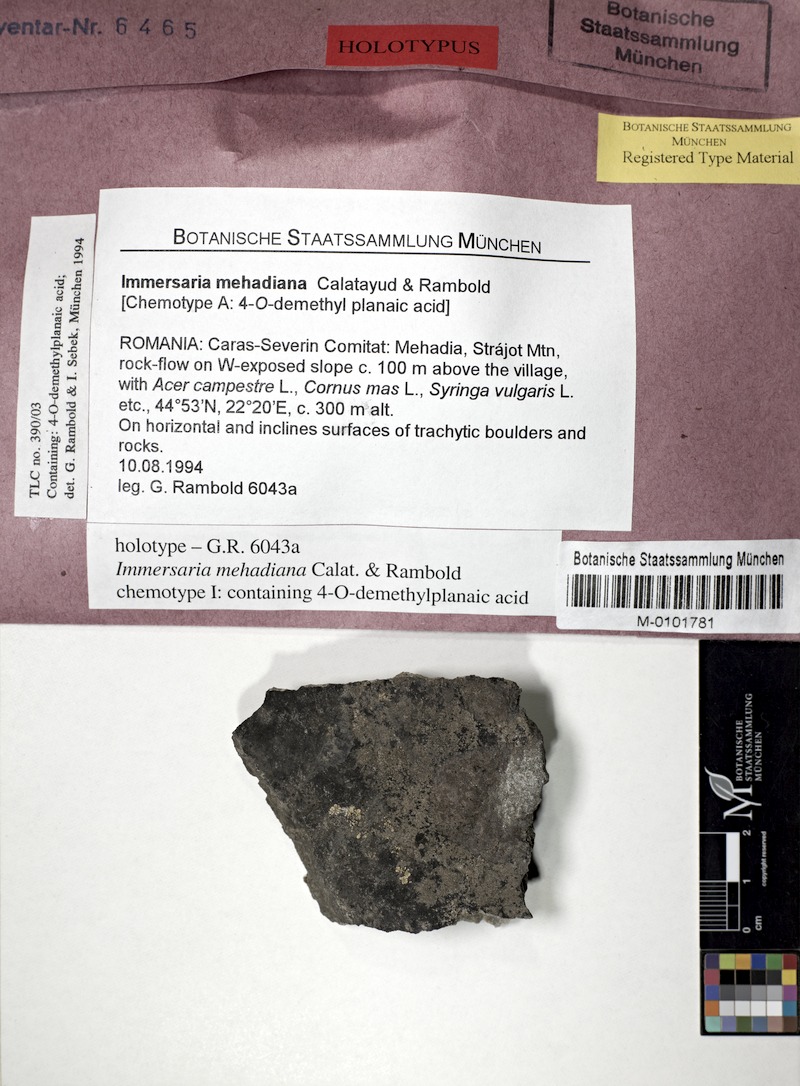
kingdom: Fungi
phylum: Ascomycota
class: Lecanoromycetes
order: Lecideales
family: Lecideaceae
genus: Immersaria
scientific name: Immersaria
